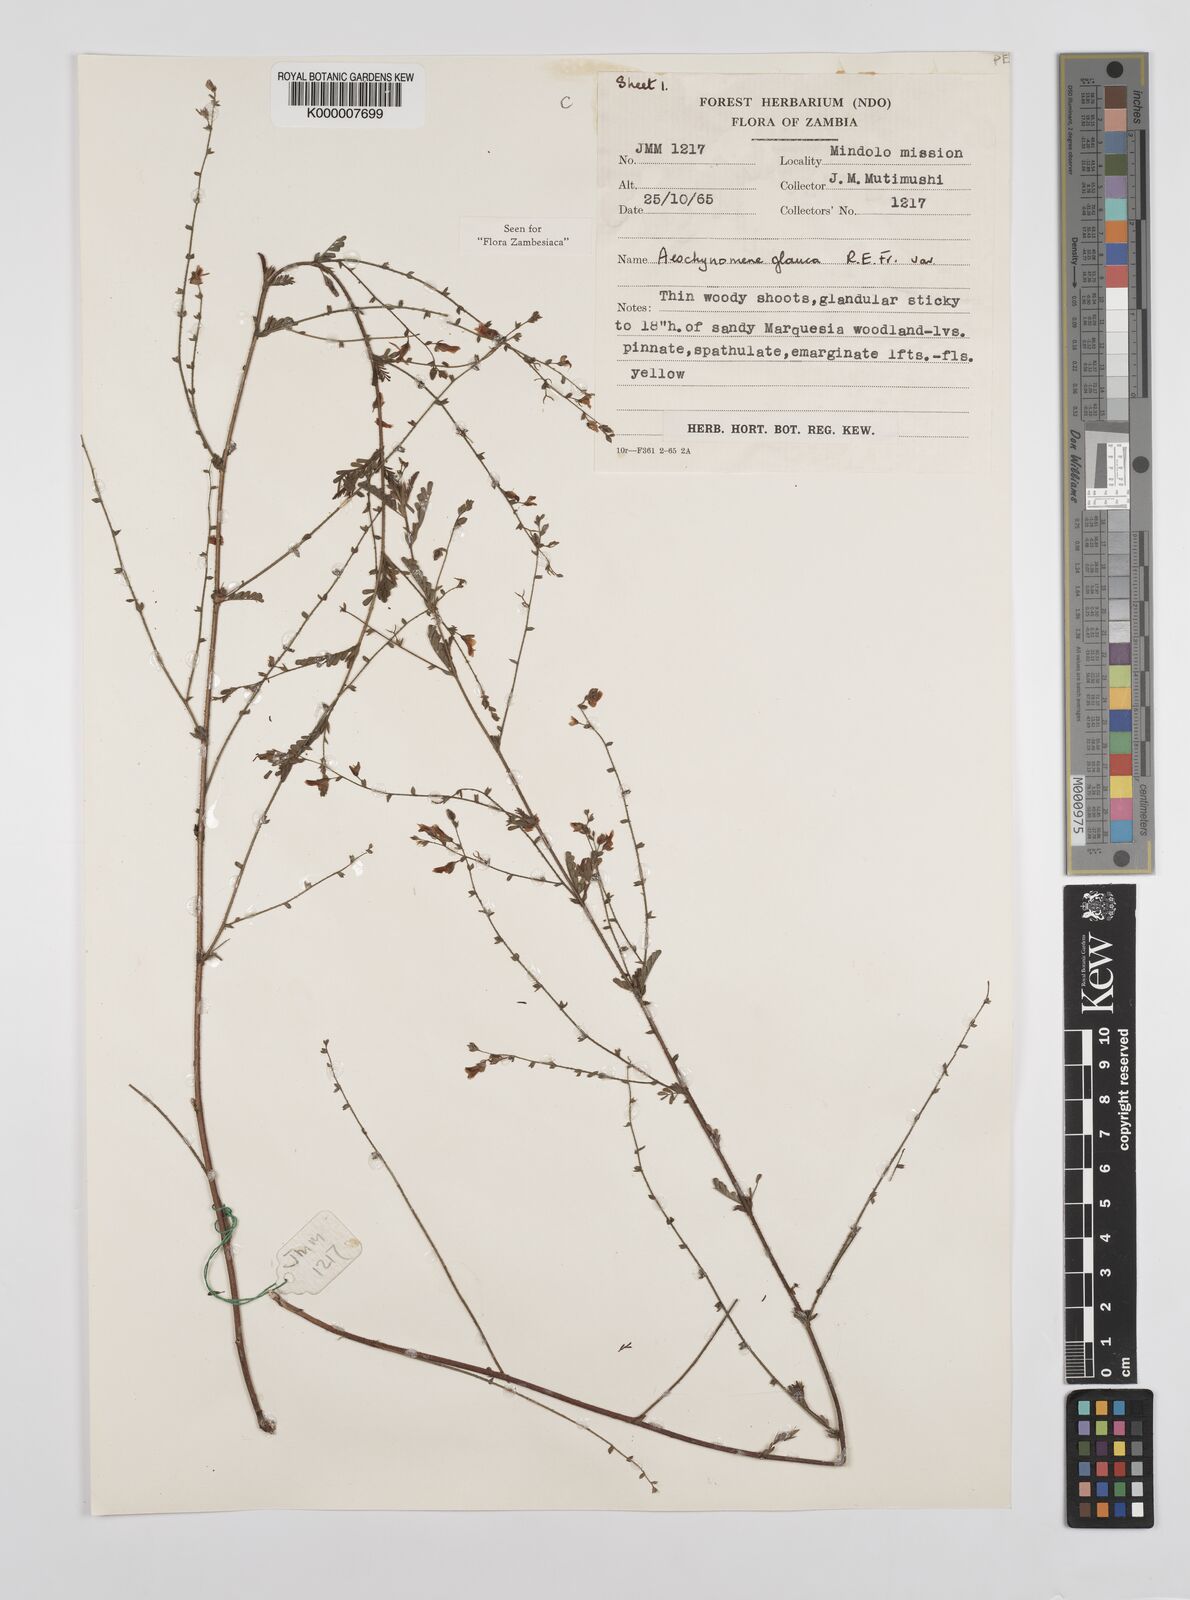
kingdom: Plantae
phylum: Tracheophyta
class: Magnoliopsida
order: Fabales
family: Fabaceae
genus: Aeschynomene
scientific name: Aeschynomene glauca
